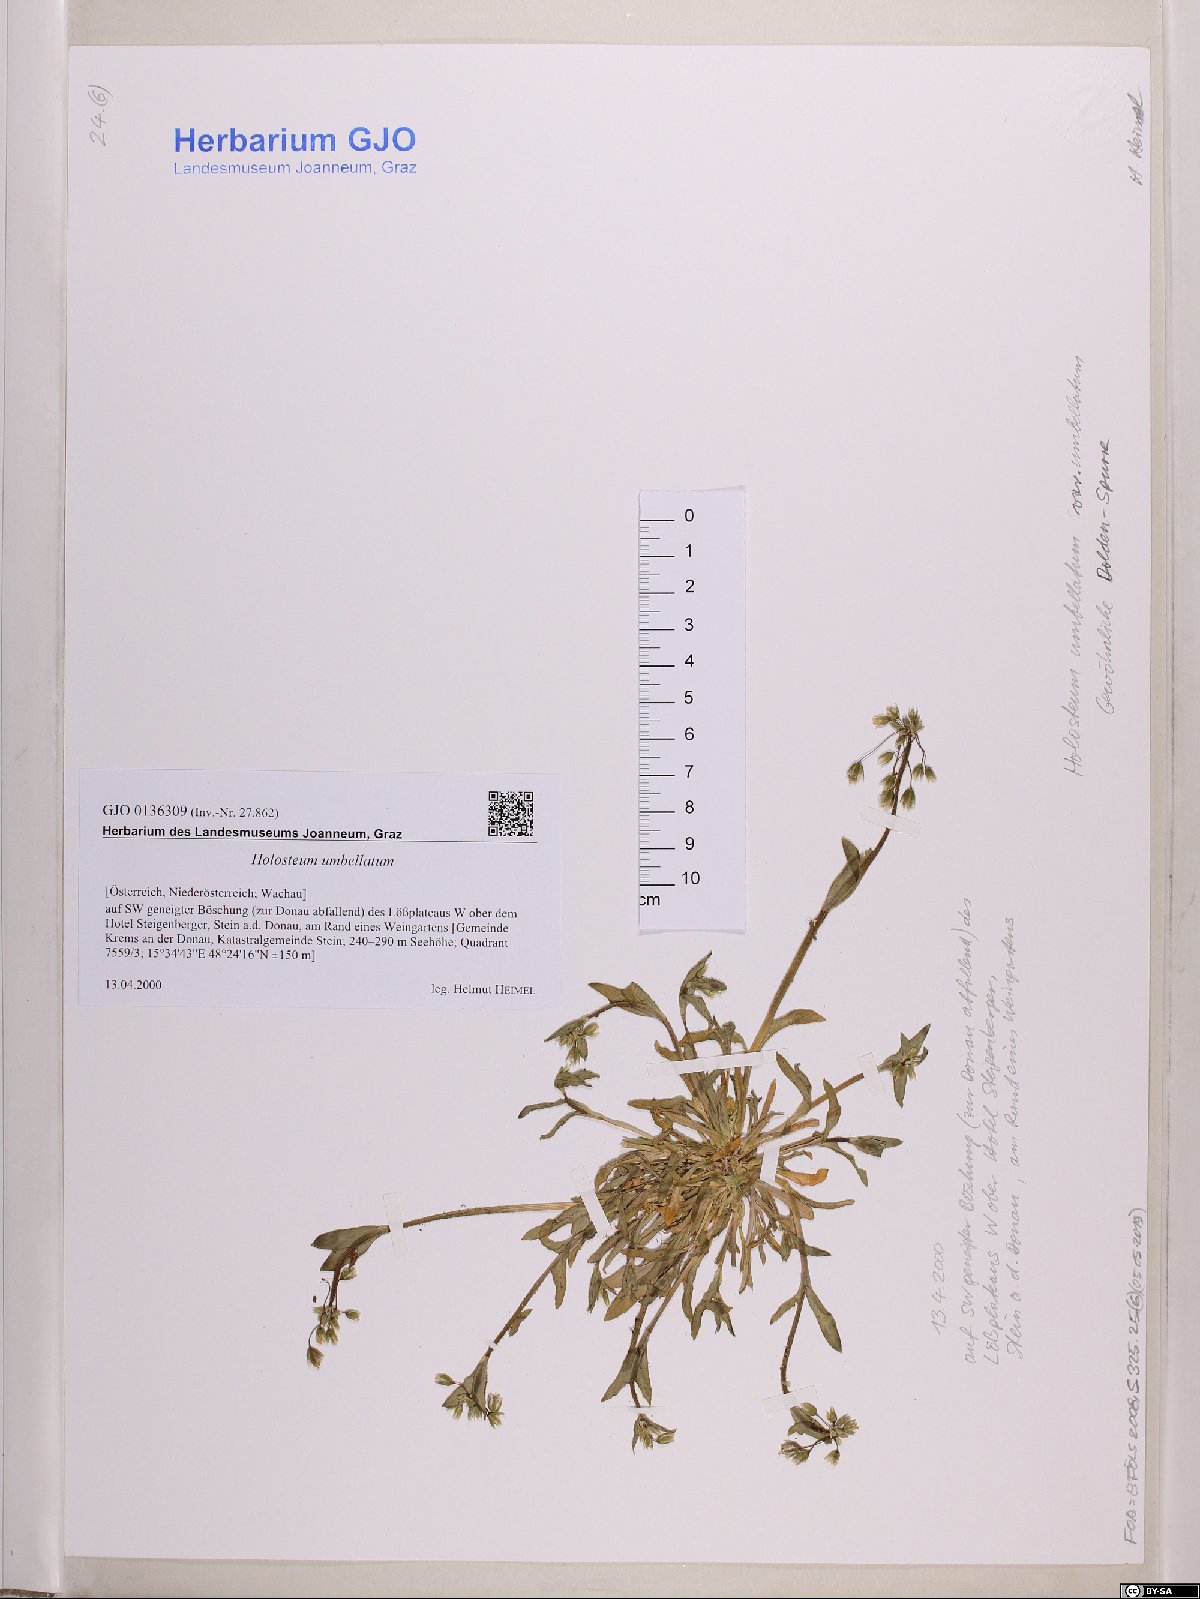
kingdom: Plantae
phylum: Tracheophyta
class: Magnoliopsida
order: Caryophyllales
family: Caryophyllaceae
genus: Holosteum
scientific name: Holosteum umbellatum
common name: Jagged chickweed
